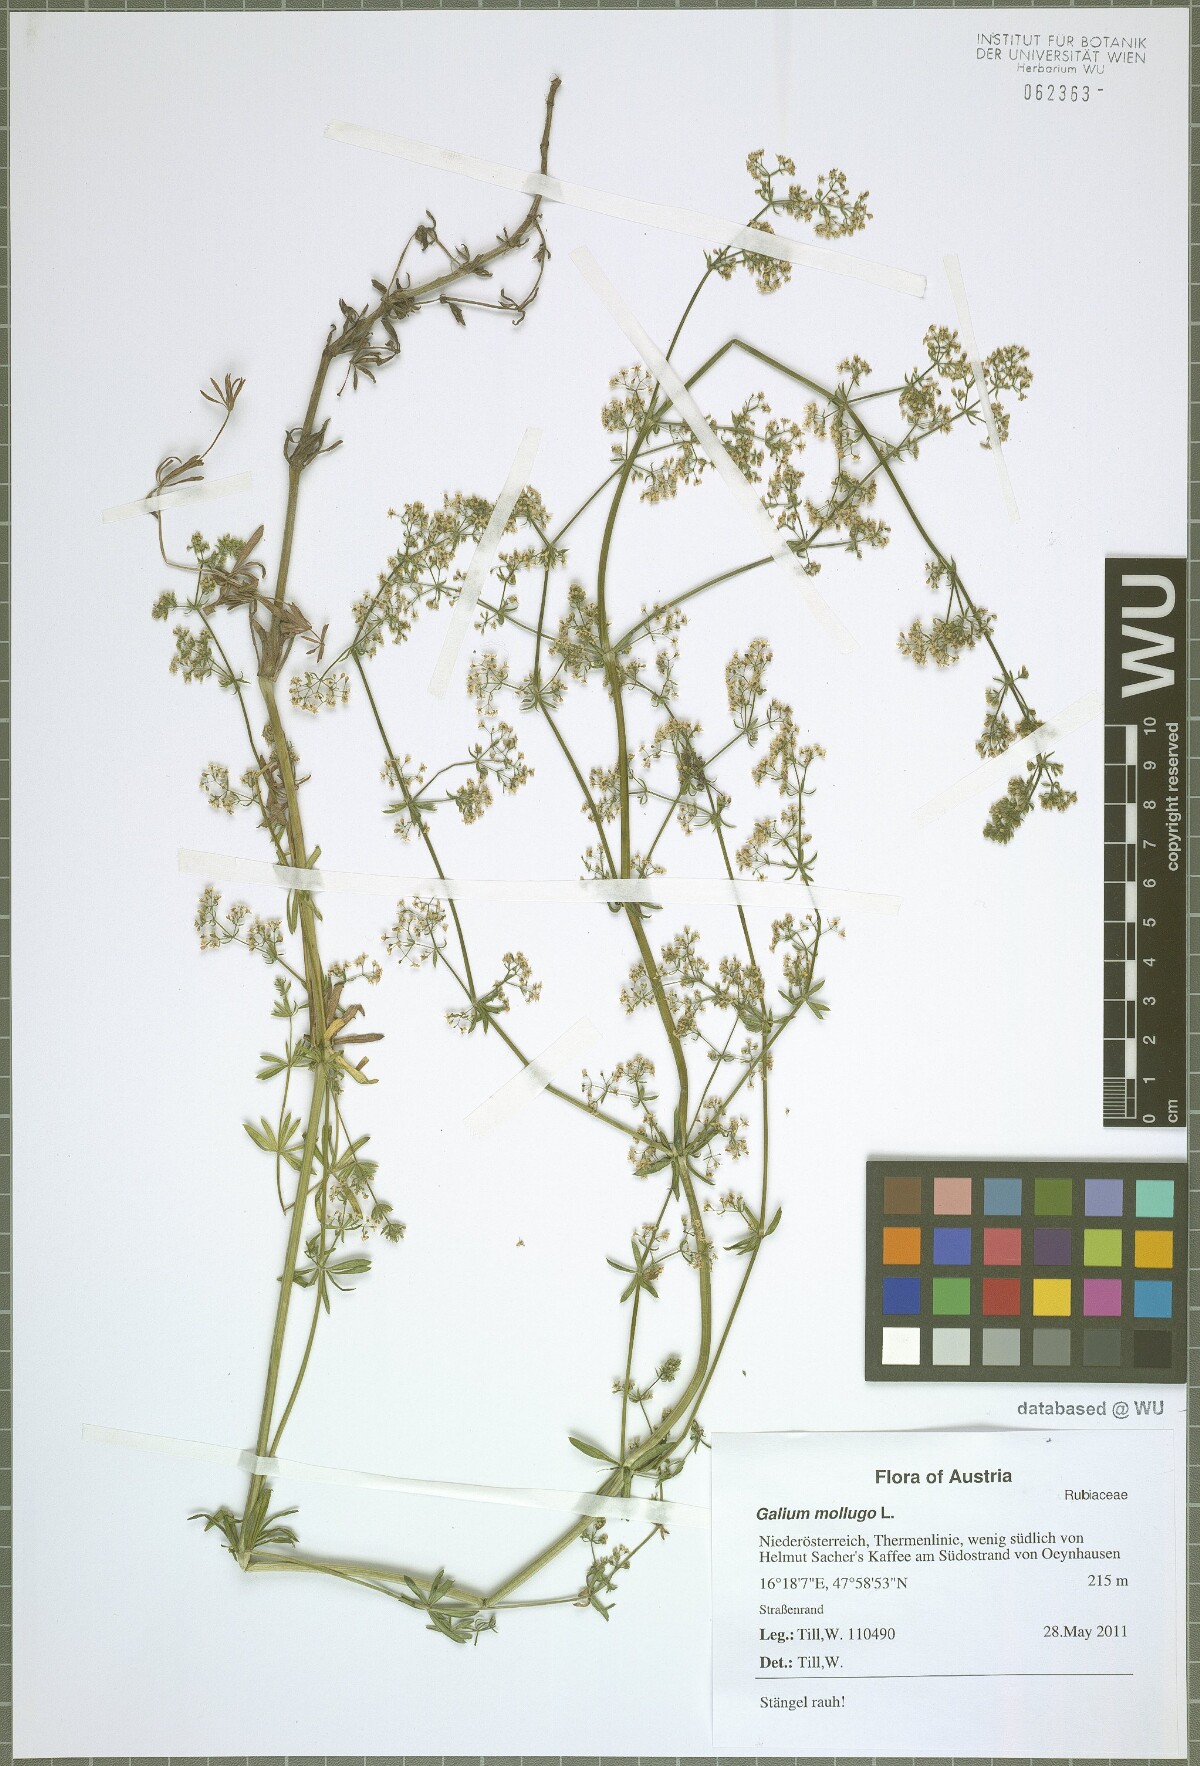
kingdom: Plantae
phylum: Tracheophyta
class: Magnoliopsida
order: Gentianales
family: Rubiaceae
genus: Galium
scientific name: Galium mollugo
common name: Hedge bedstraw
